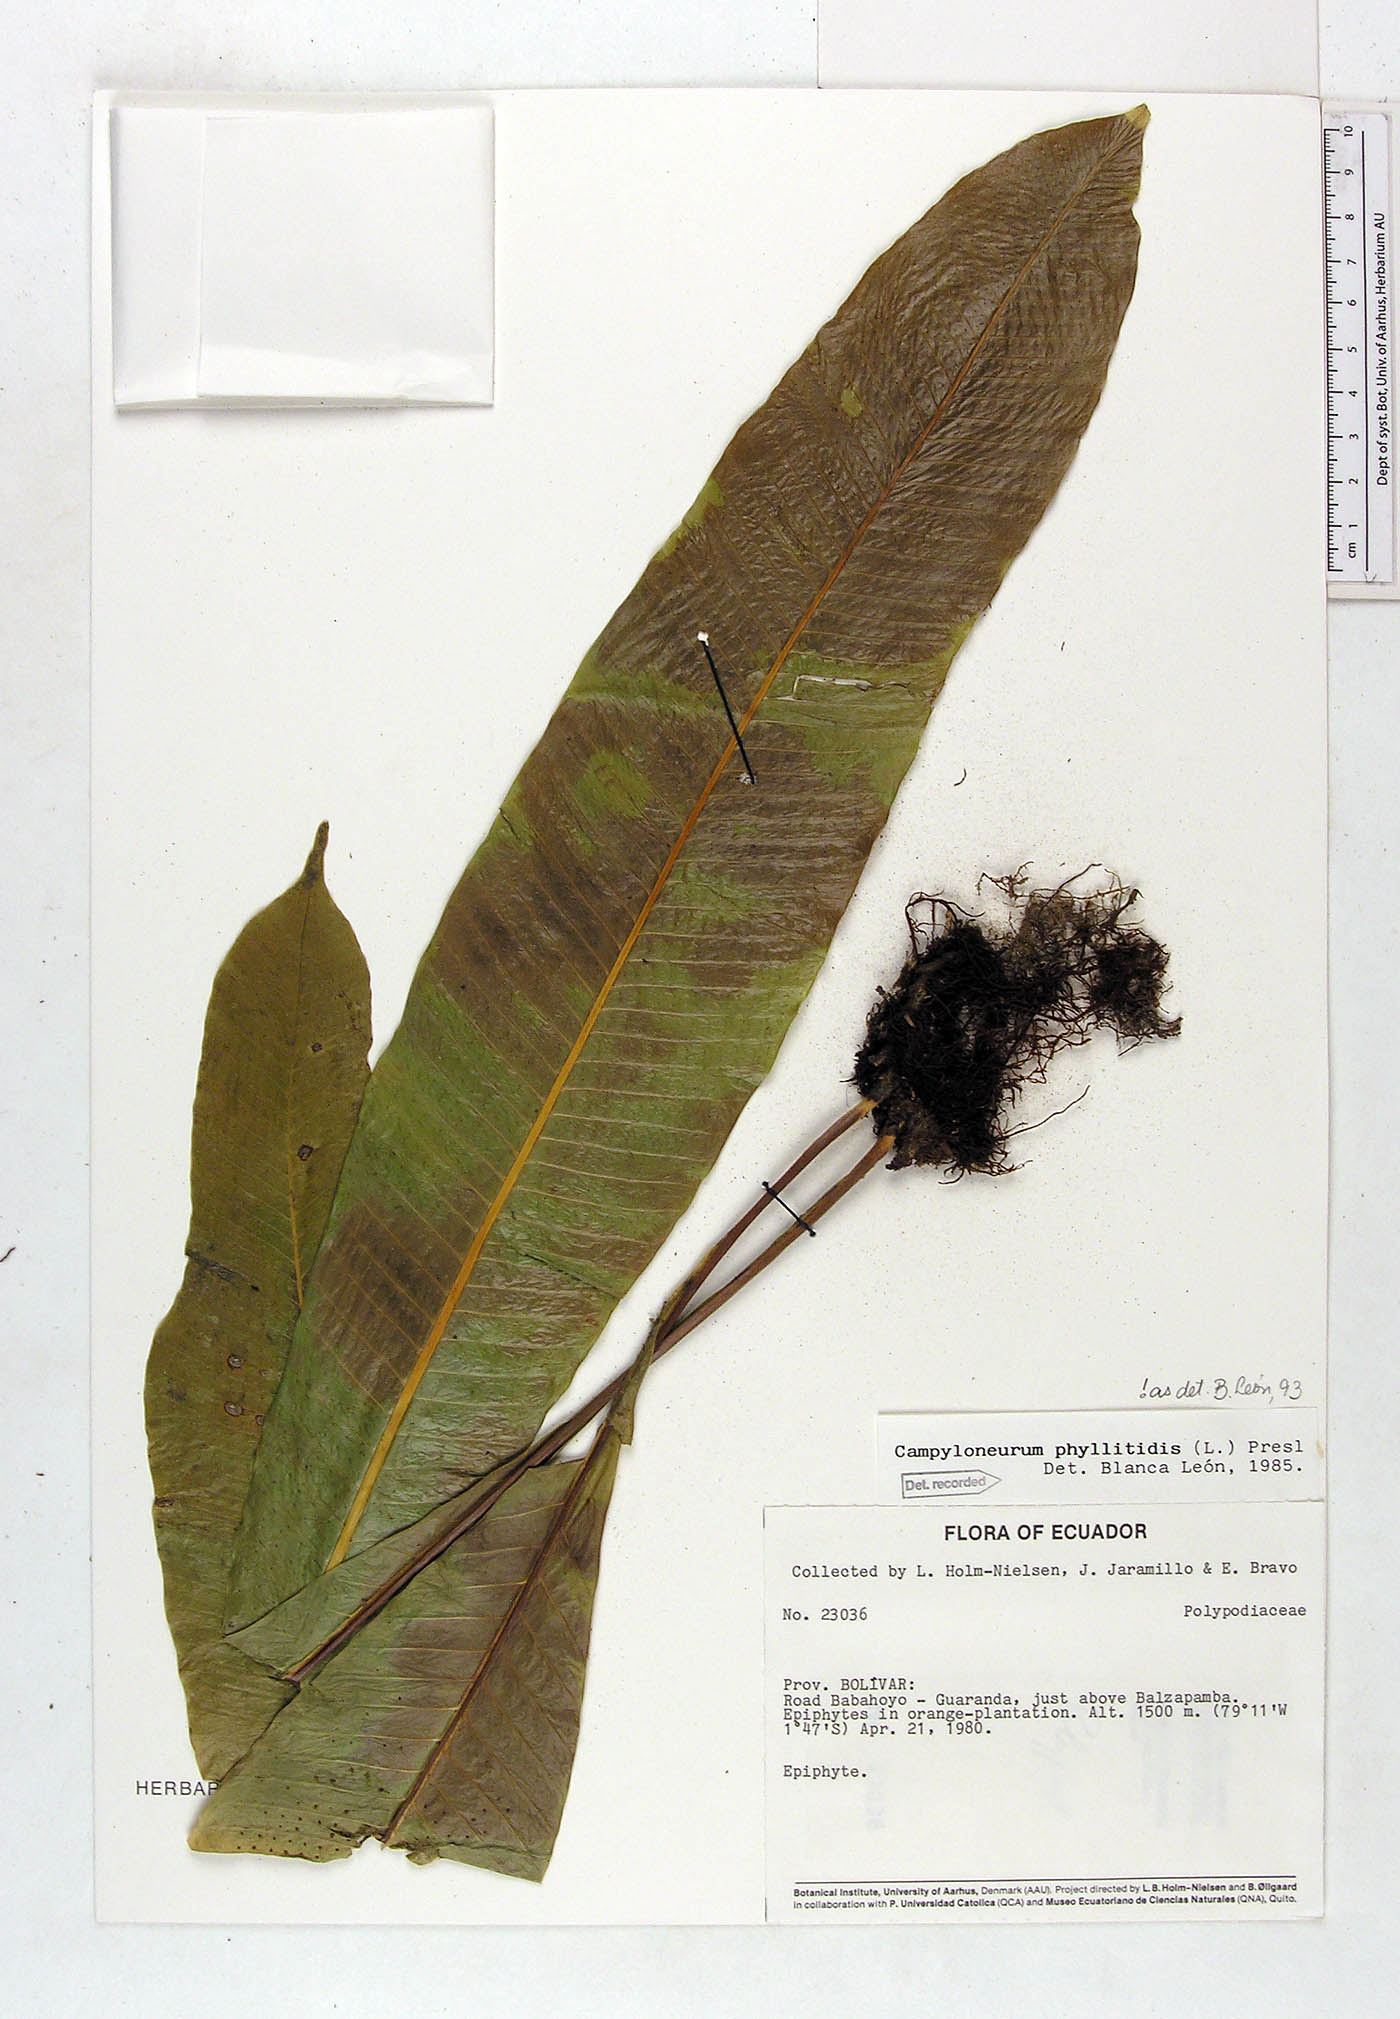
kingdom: Plantae
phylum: Tracheophyta
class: Polypodiopsida
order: Polypodiales
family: Polypodiaceae
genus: Campyloneurum
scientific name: Campyloneurum phyllitidis
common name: Cow-tongue fern
